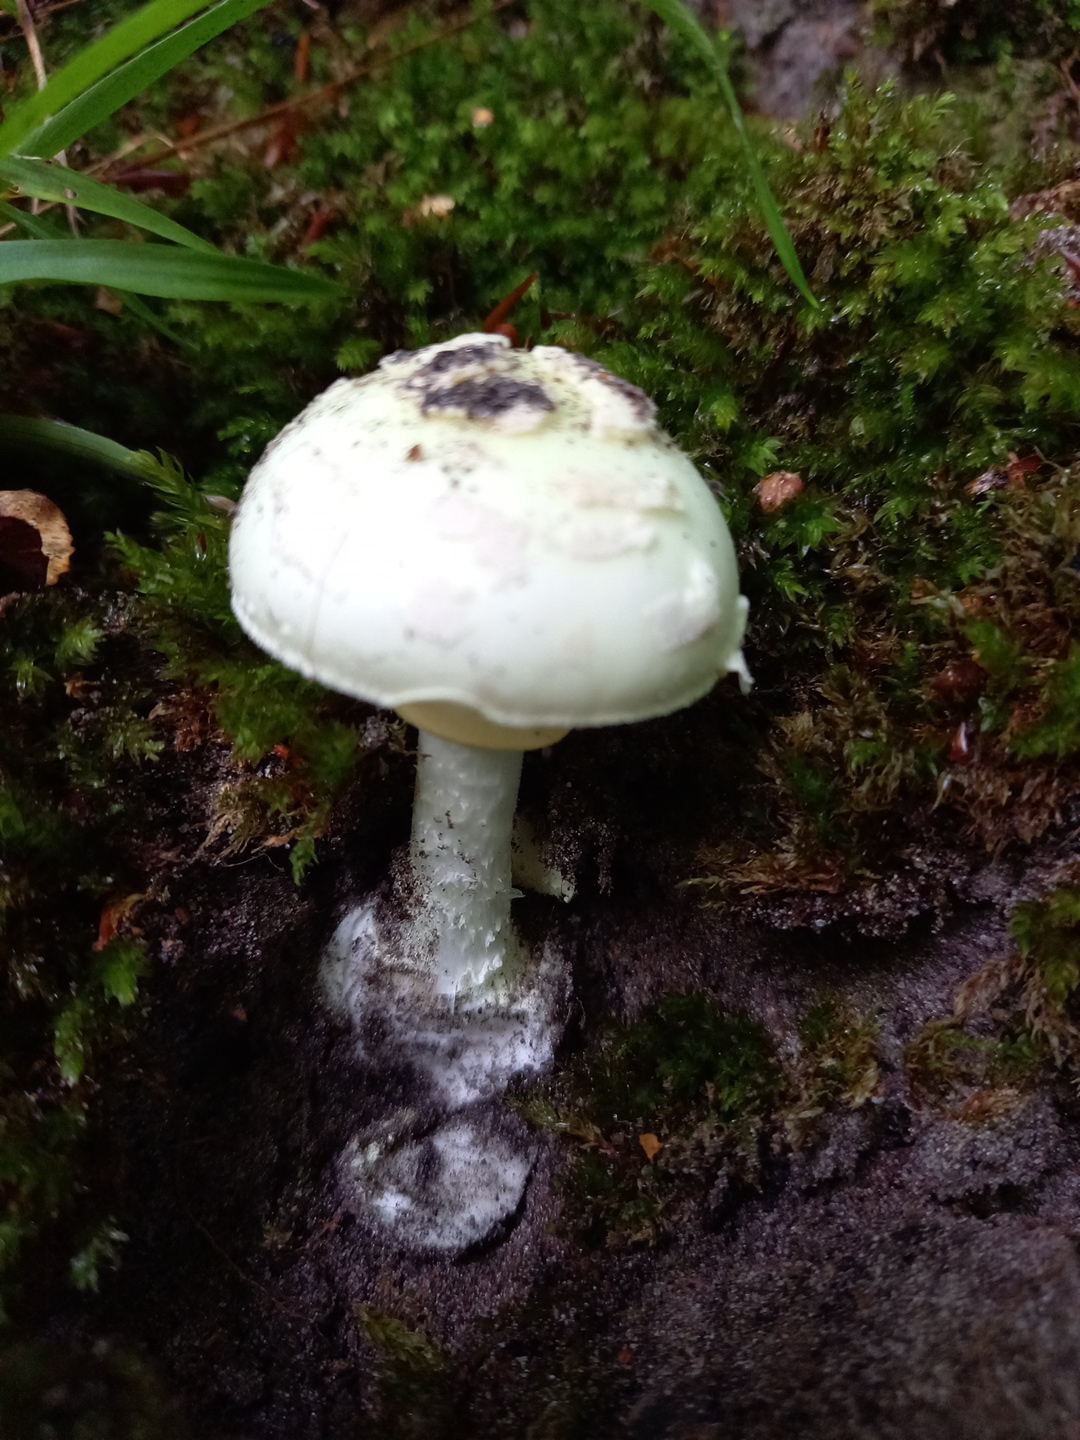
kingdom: Fungi
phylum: Basidiomycota
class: Agaricomycetes
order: Agaricales
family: Amanitaceae
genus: Amanita
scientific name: Amanita citrina
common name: kugleknoldet fluesvamp
